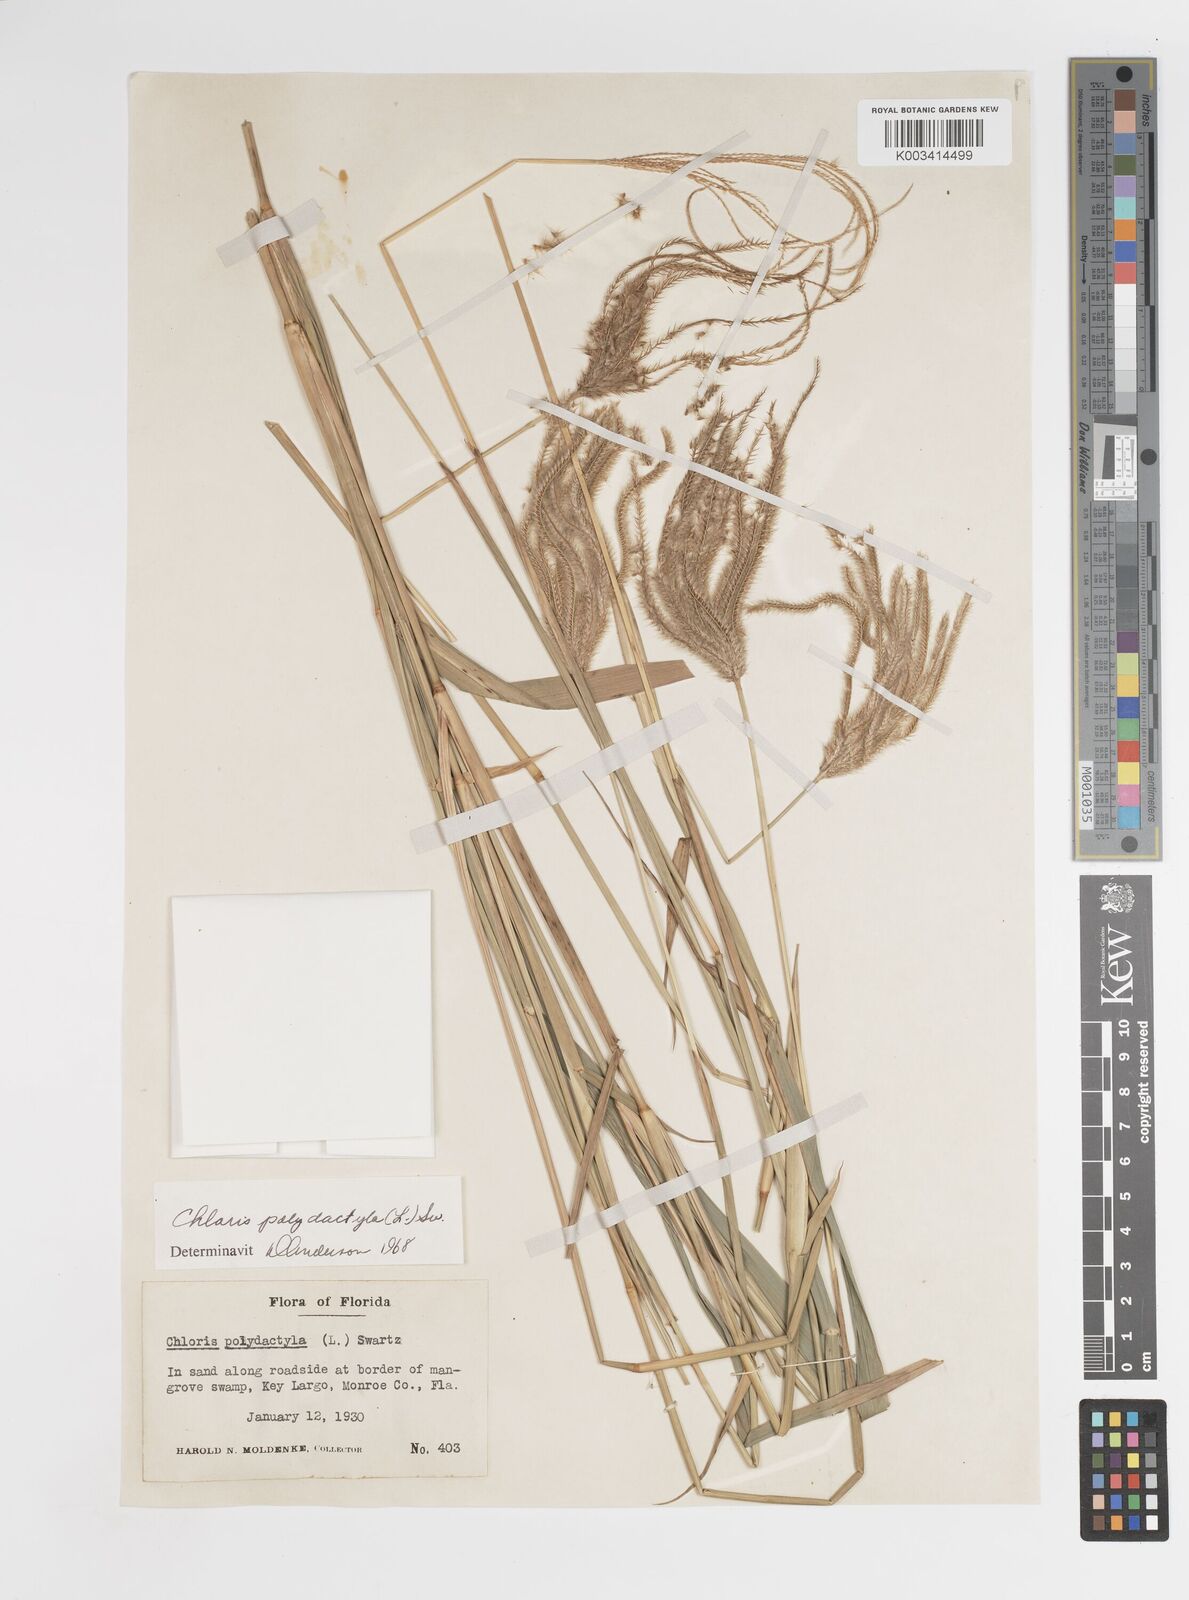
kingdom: Plantae
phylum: Tracheophyta
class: Liliopsida
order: Poales
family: Poaceae
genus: Stapfochloa
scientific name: Stapfochloa elata
